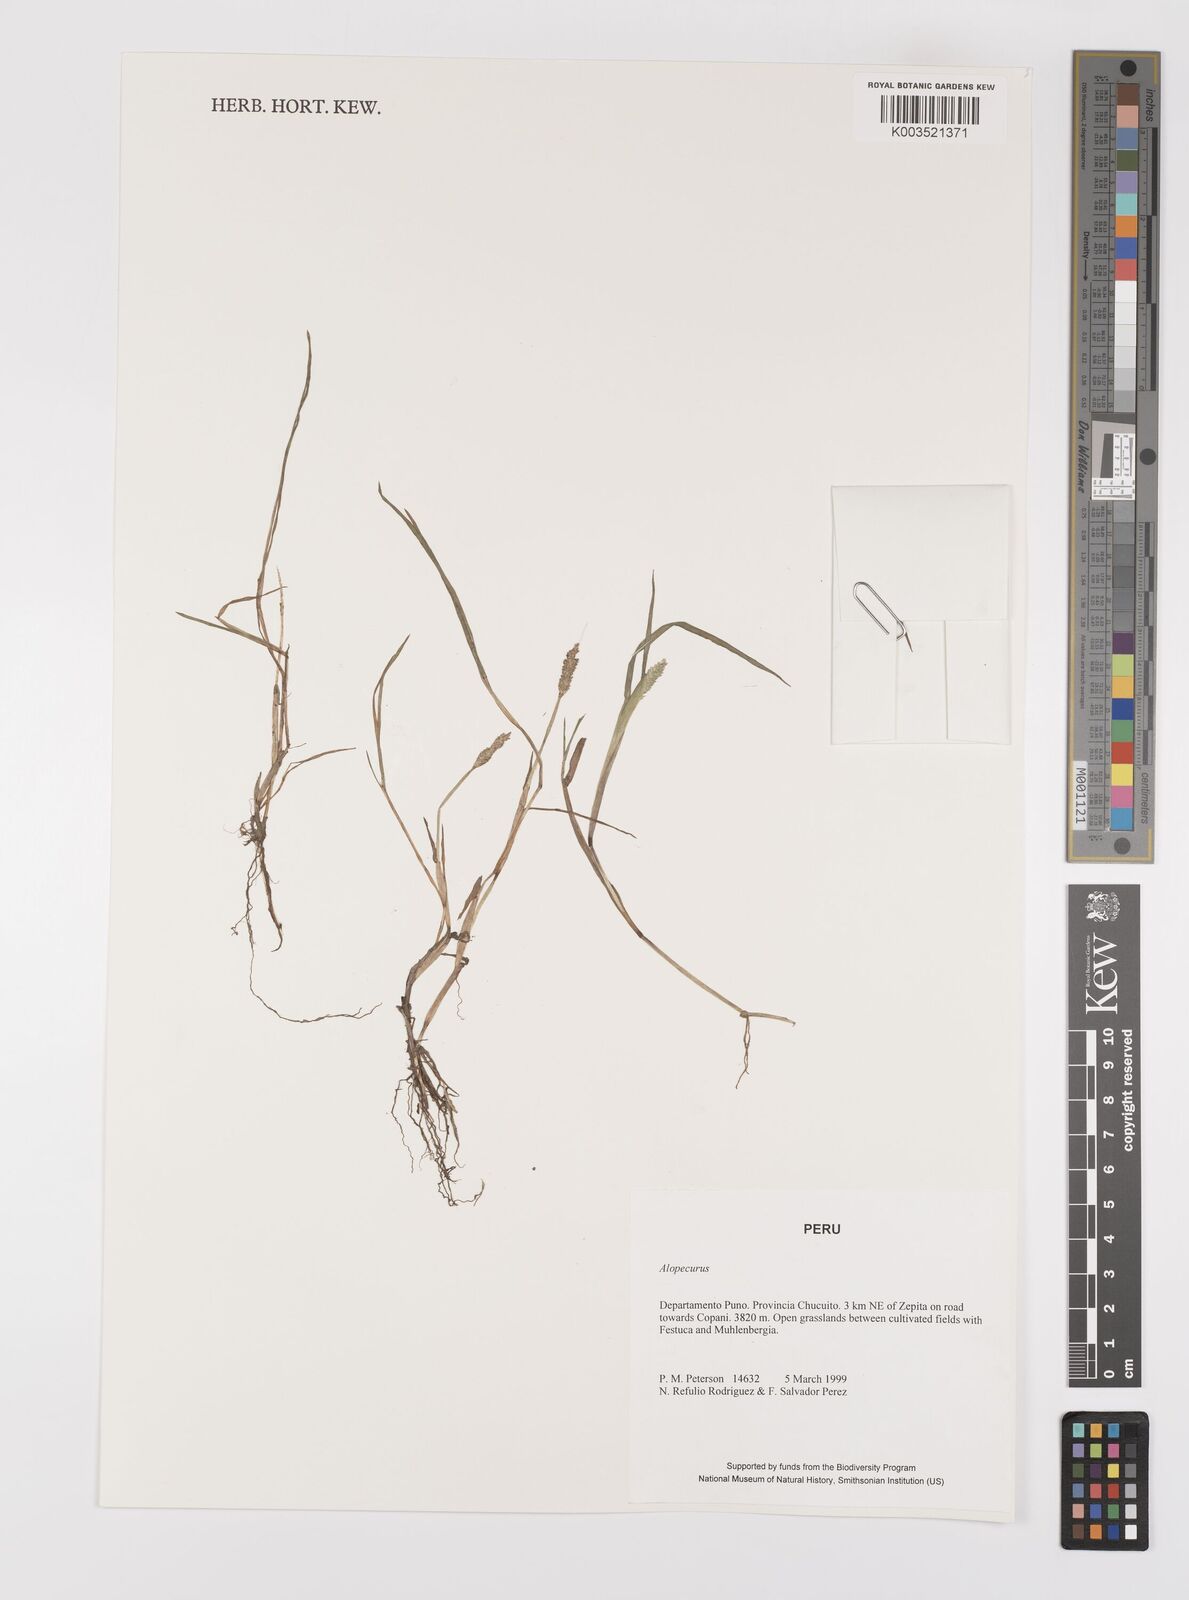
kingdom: Plantae
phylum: Tracheophyta
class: Liliopsida
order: Poales
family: Poaceae
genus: Alopecurus
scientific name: Alopecurus hitchcockii
